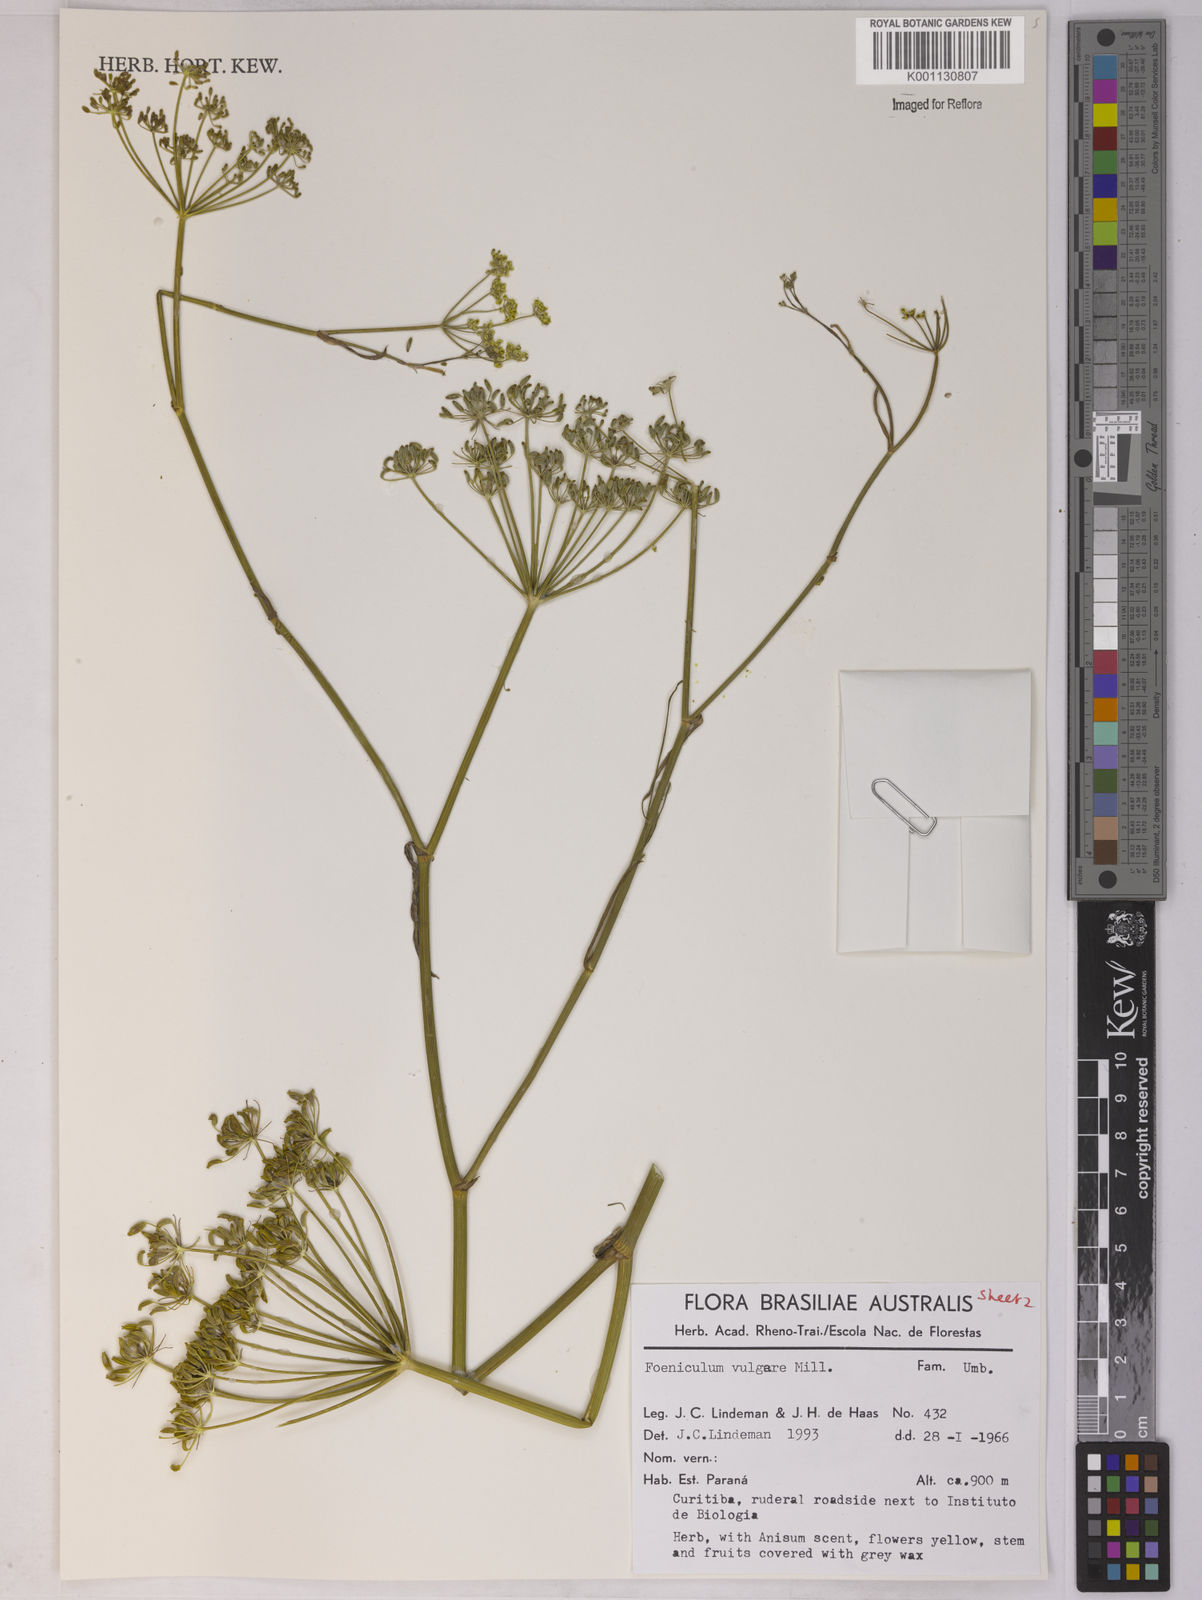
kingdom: Plantae
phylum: Tracheophyta
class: Magnoliopsida
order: Apiales
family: Apiaceae
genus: Foeniculum
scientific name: Foeniculum vulgare
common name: Fennel
